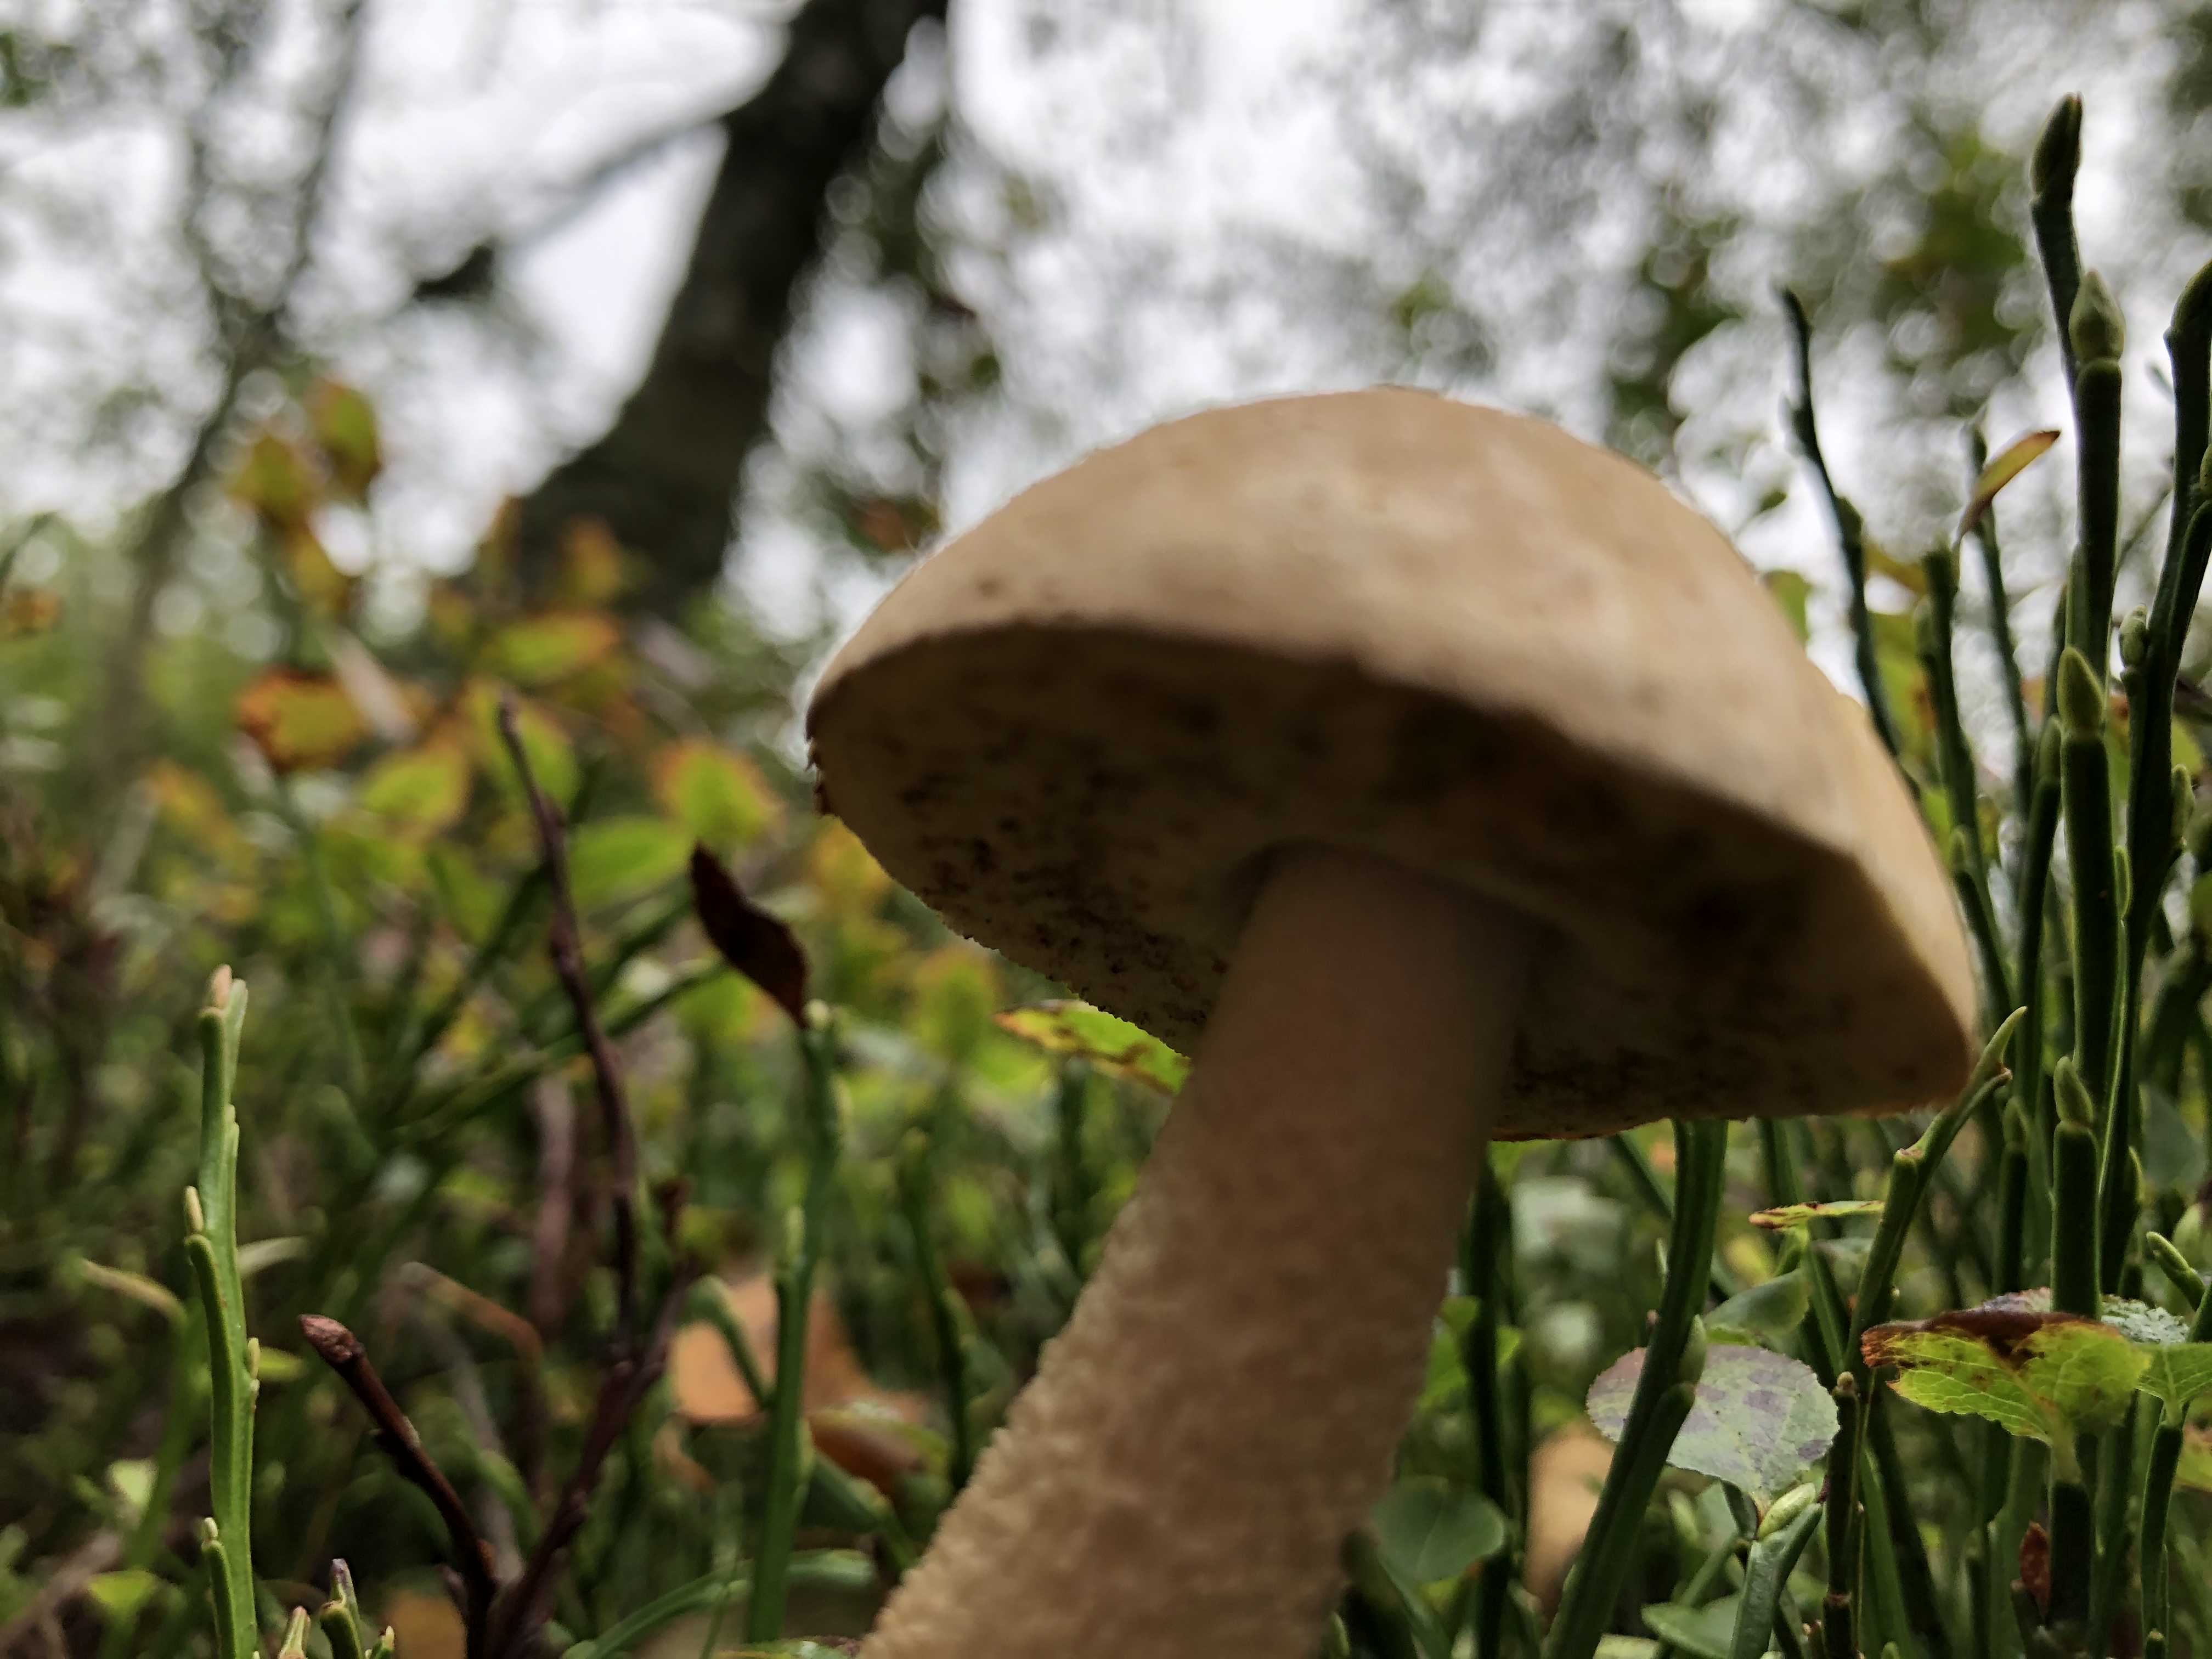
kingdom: Fungi
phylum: Basidiomycota
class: Agaricomycetes
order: Boletales
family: Boletaceae
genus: Leccinum
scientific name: Leccinum scabrum
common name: hvid skælrørhat
